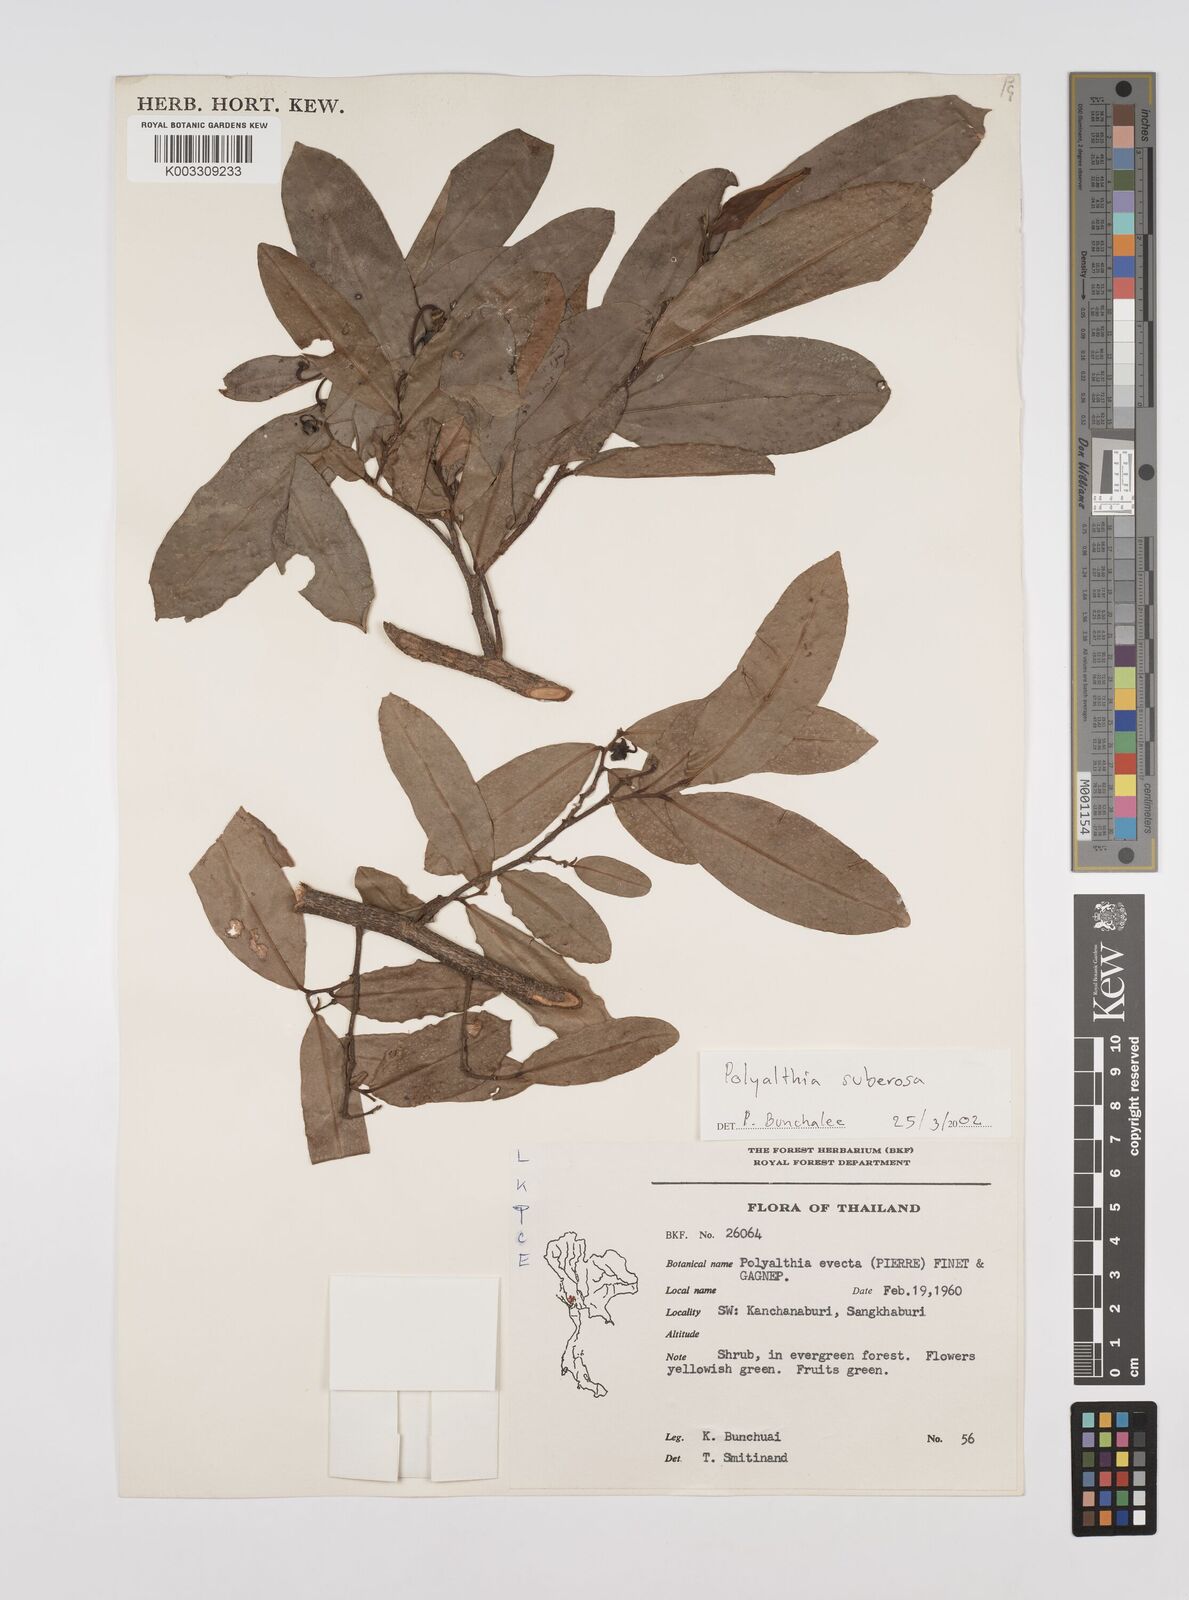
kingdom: Plantae
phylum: Tracheophyta
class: Magnoliopsida
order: Magnoliales
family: Annonaceae
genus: Polyalthia
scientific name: Polyalthia suberosa
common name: Polyalthia plant
